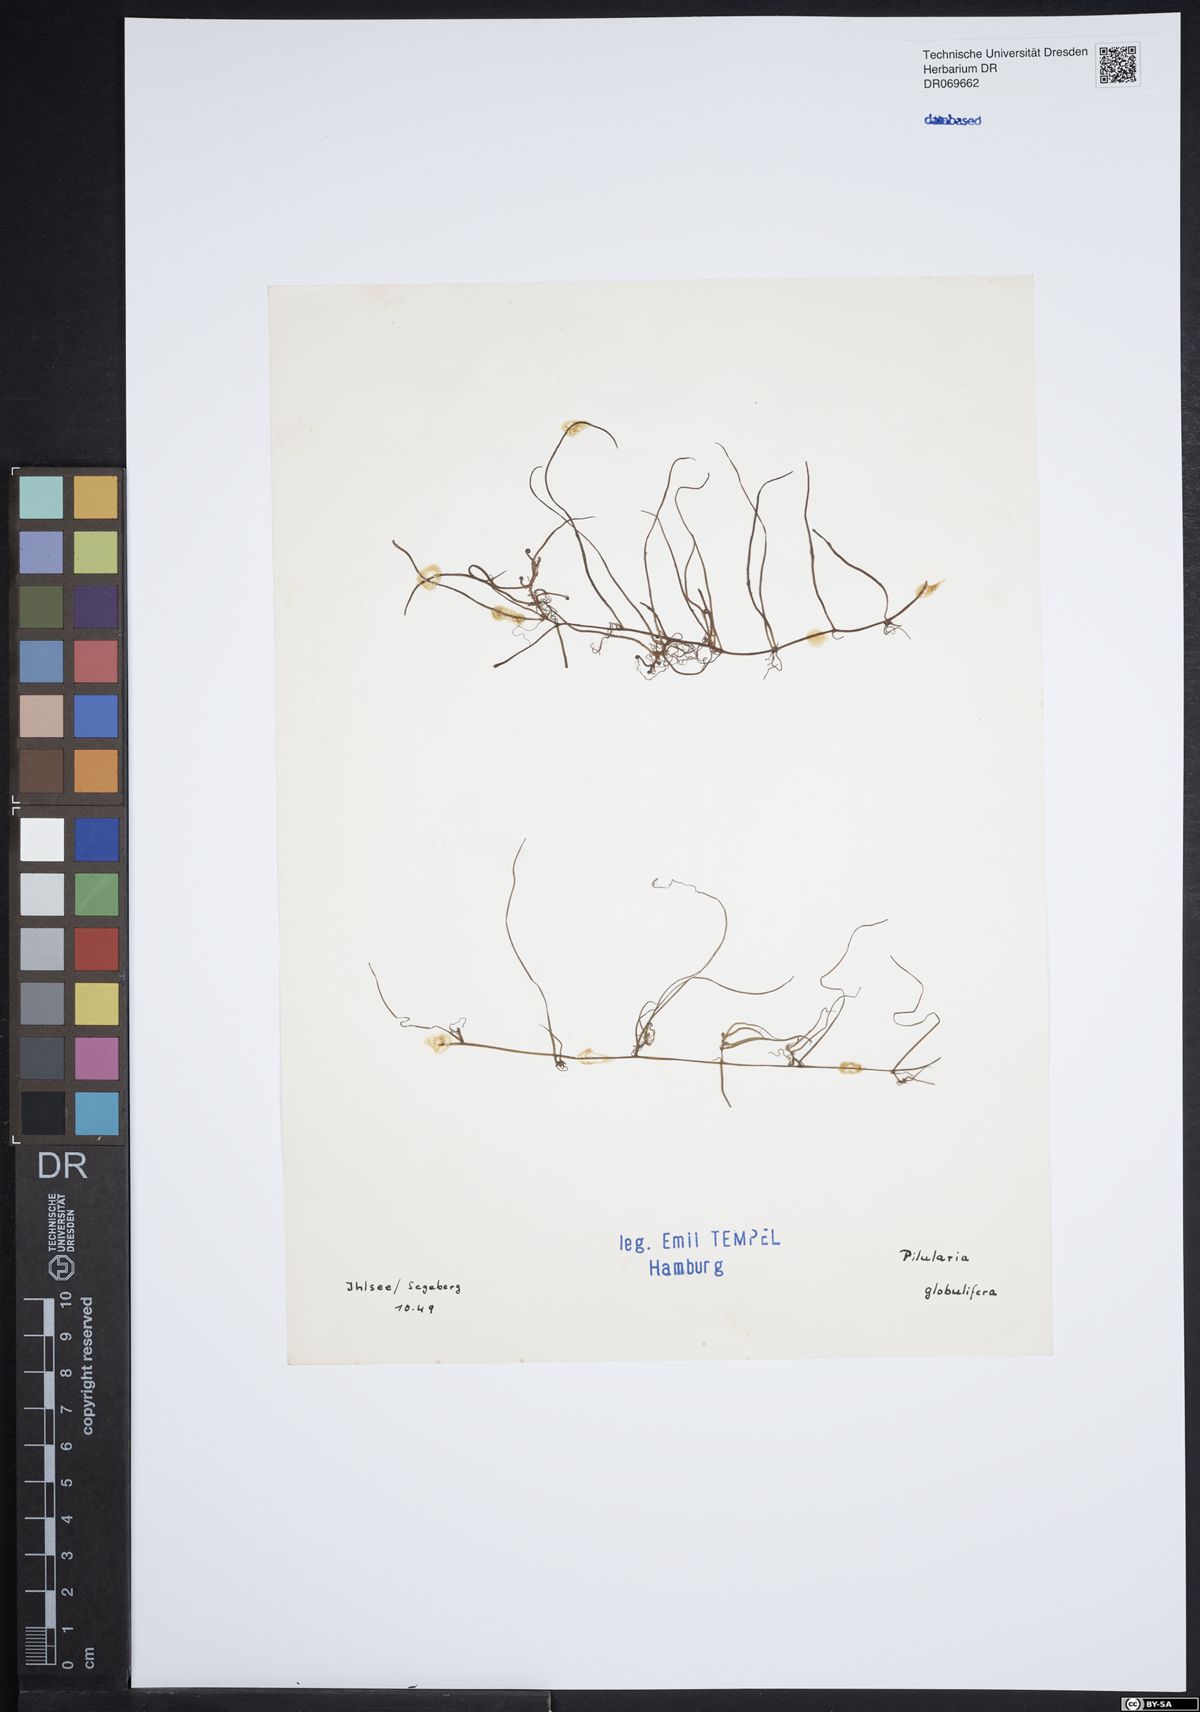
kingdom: Plantae
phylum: Tracheophyta
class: Polypodiopsida
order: Salviniales
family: Marsileaceae
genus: Pilularia
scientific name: Pilularia globulifera
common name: Pillwort
